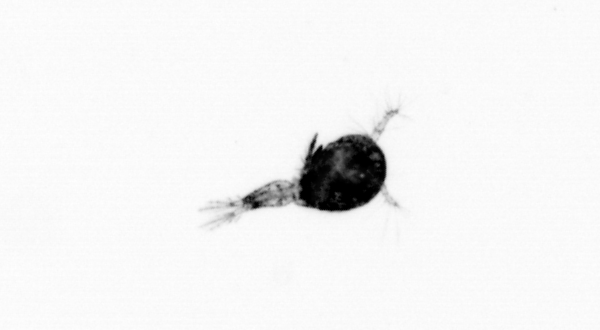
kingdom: Animalia
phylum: Arthropoda
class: Copepoda
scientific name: Copepoda
